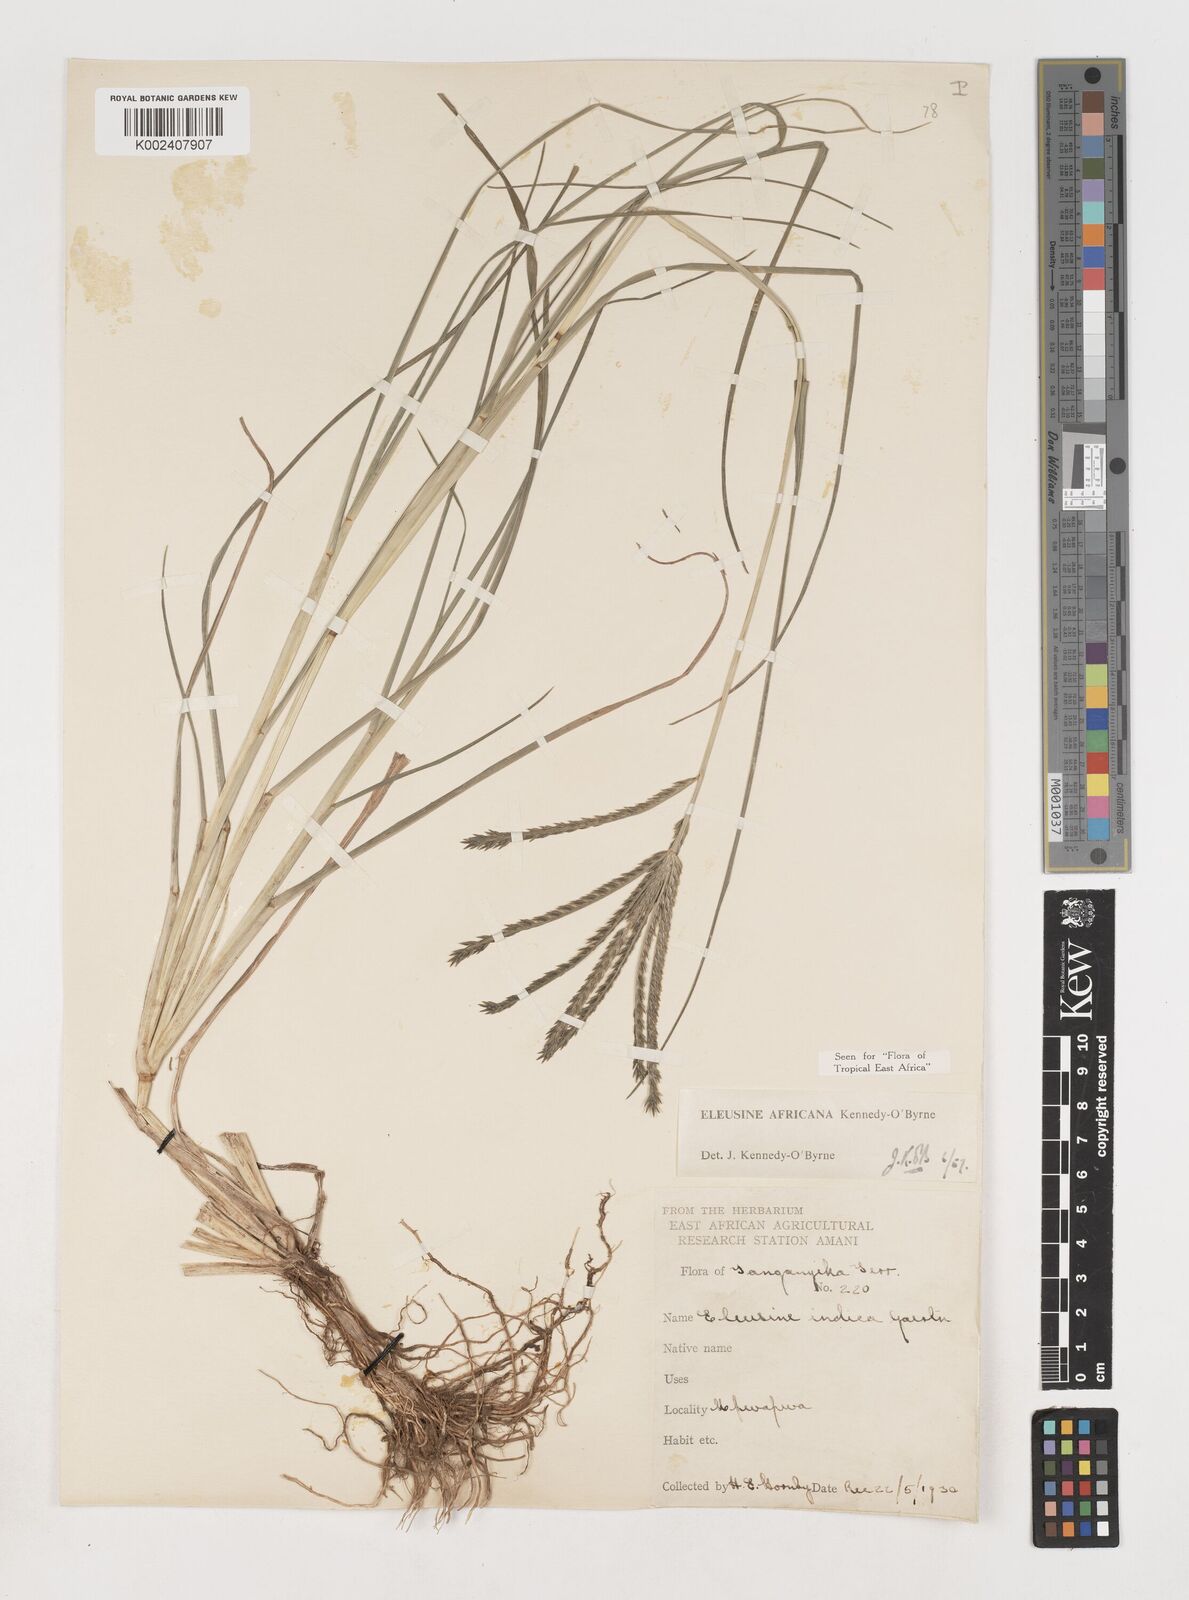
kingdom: Plantae
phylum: Tracheophyta
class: Liliopsida
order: Poales
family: Poaceae
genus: Eleusine
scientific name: Eleusine africana
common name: Wild african finger millet
